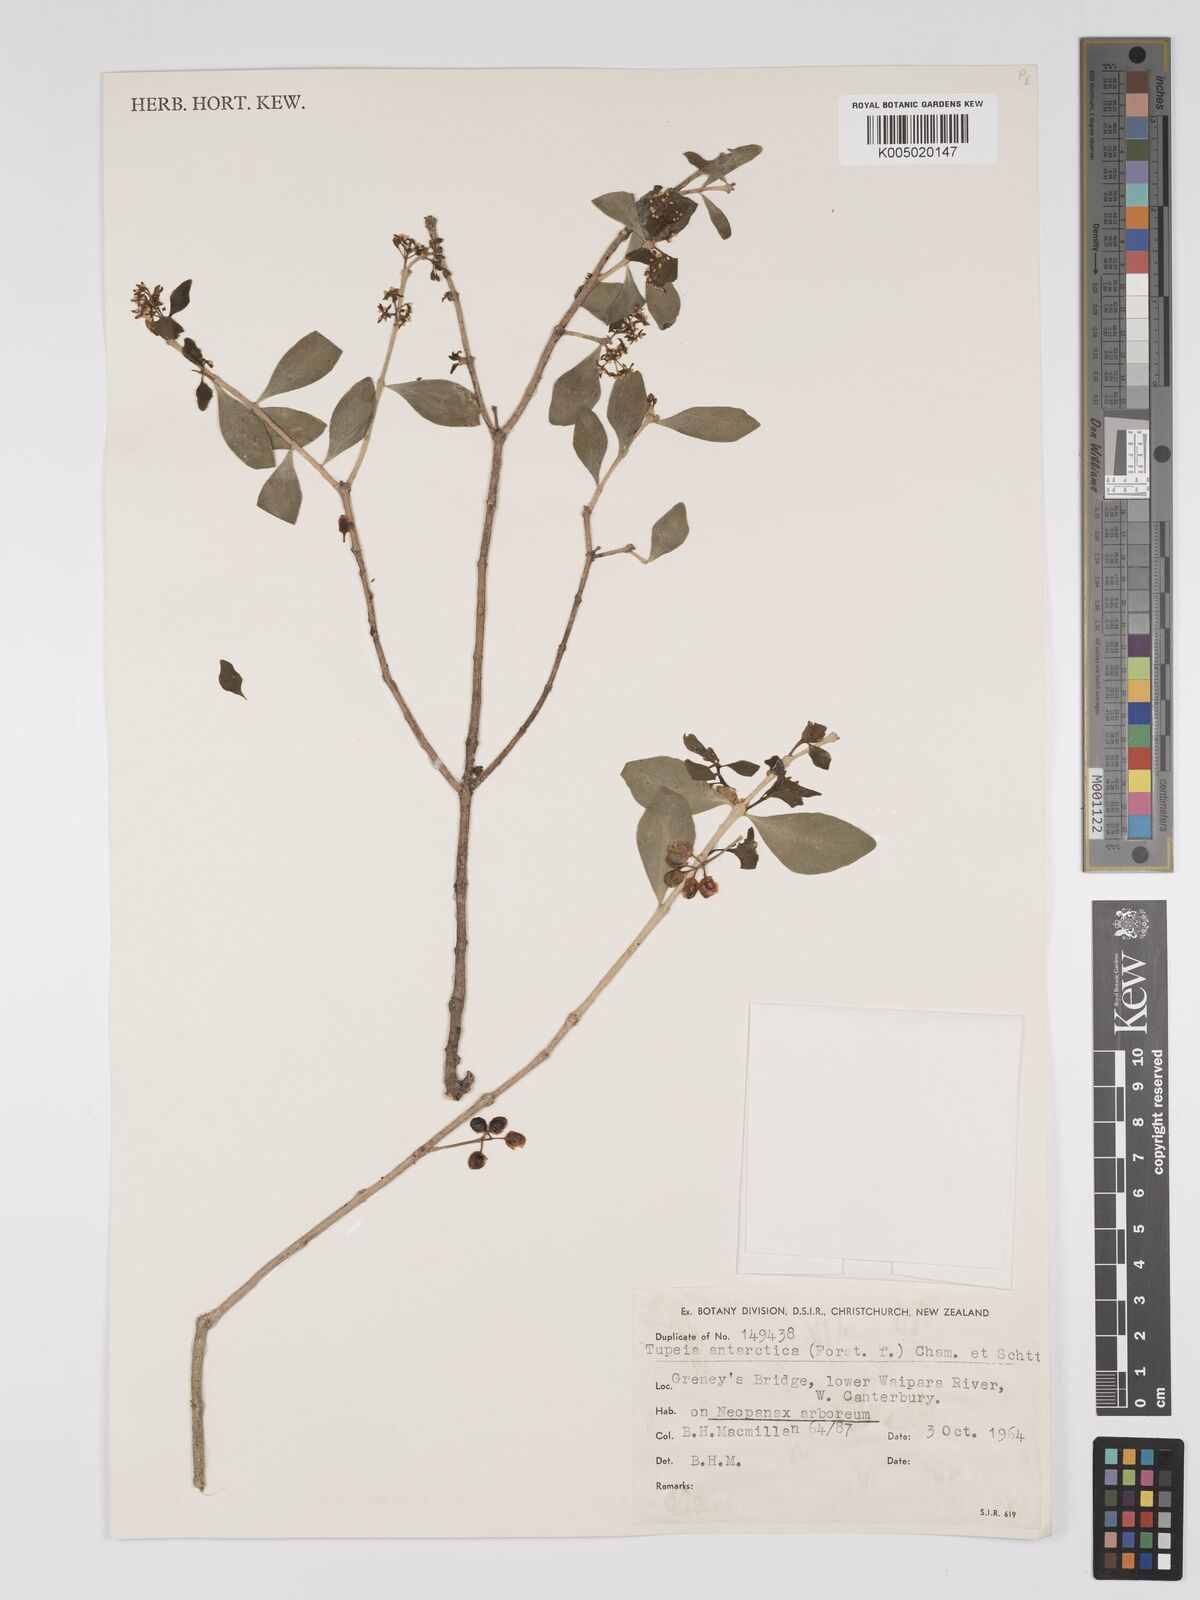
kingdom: Plantae
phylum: Tracheophyta
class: Magnoliopsida
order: Santalales
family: Loranthaceae
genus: Tupeia
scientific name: Tupeia antarctica
